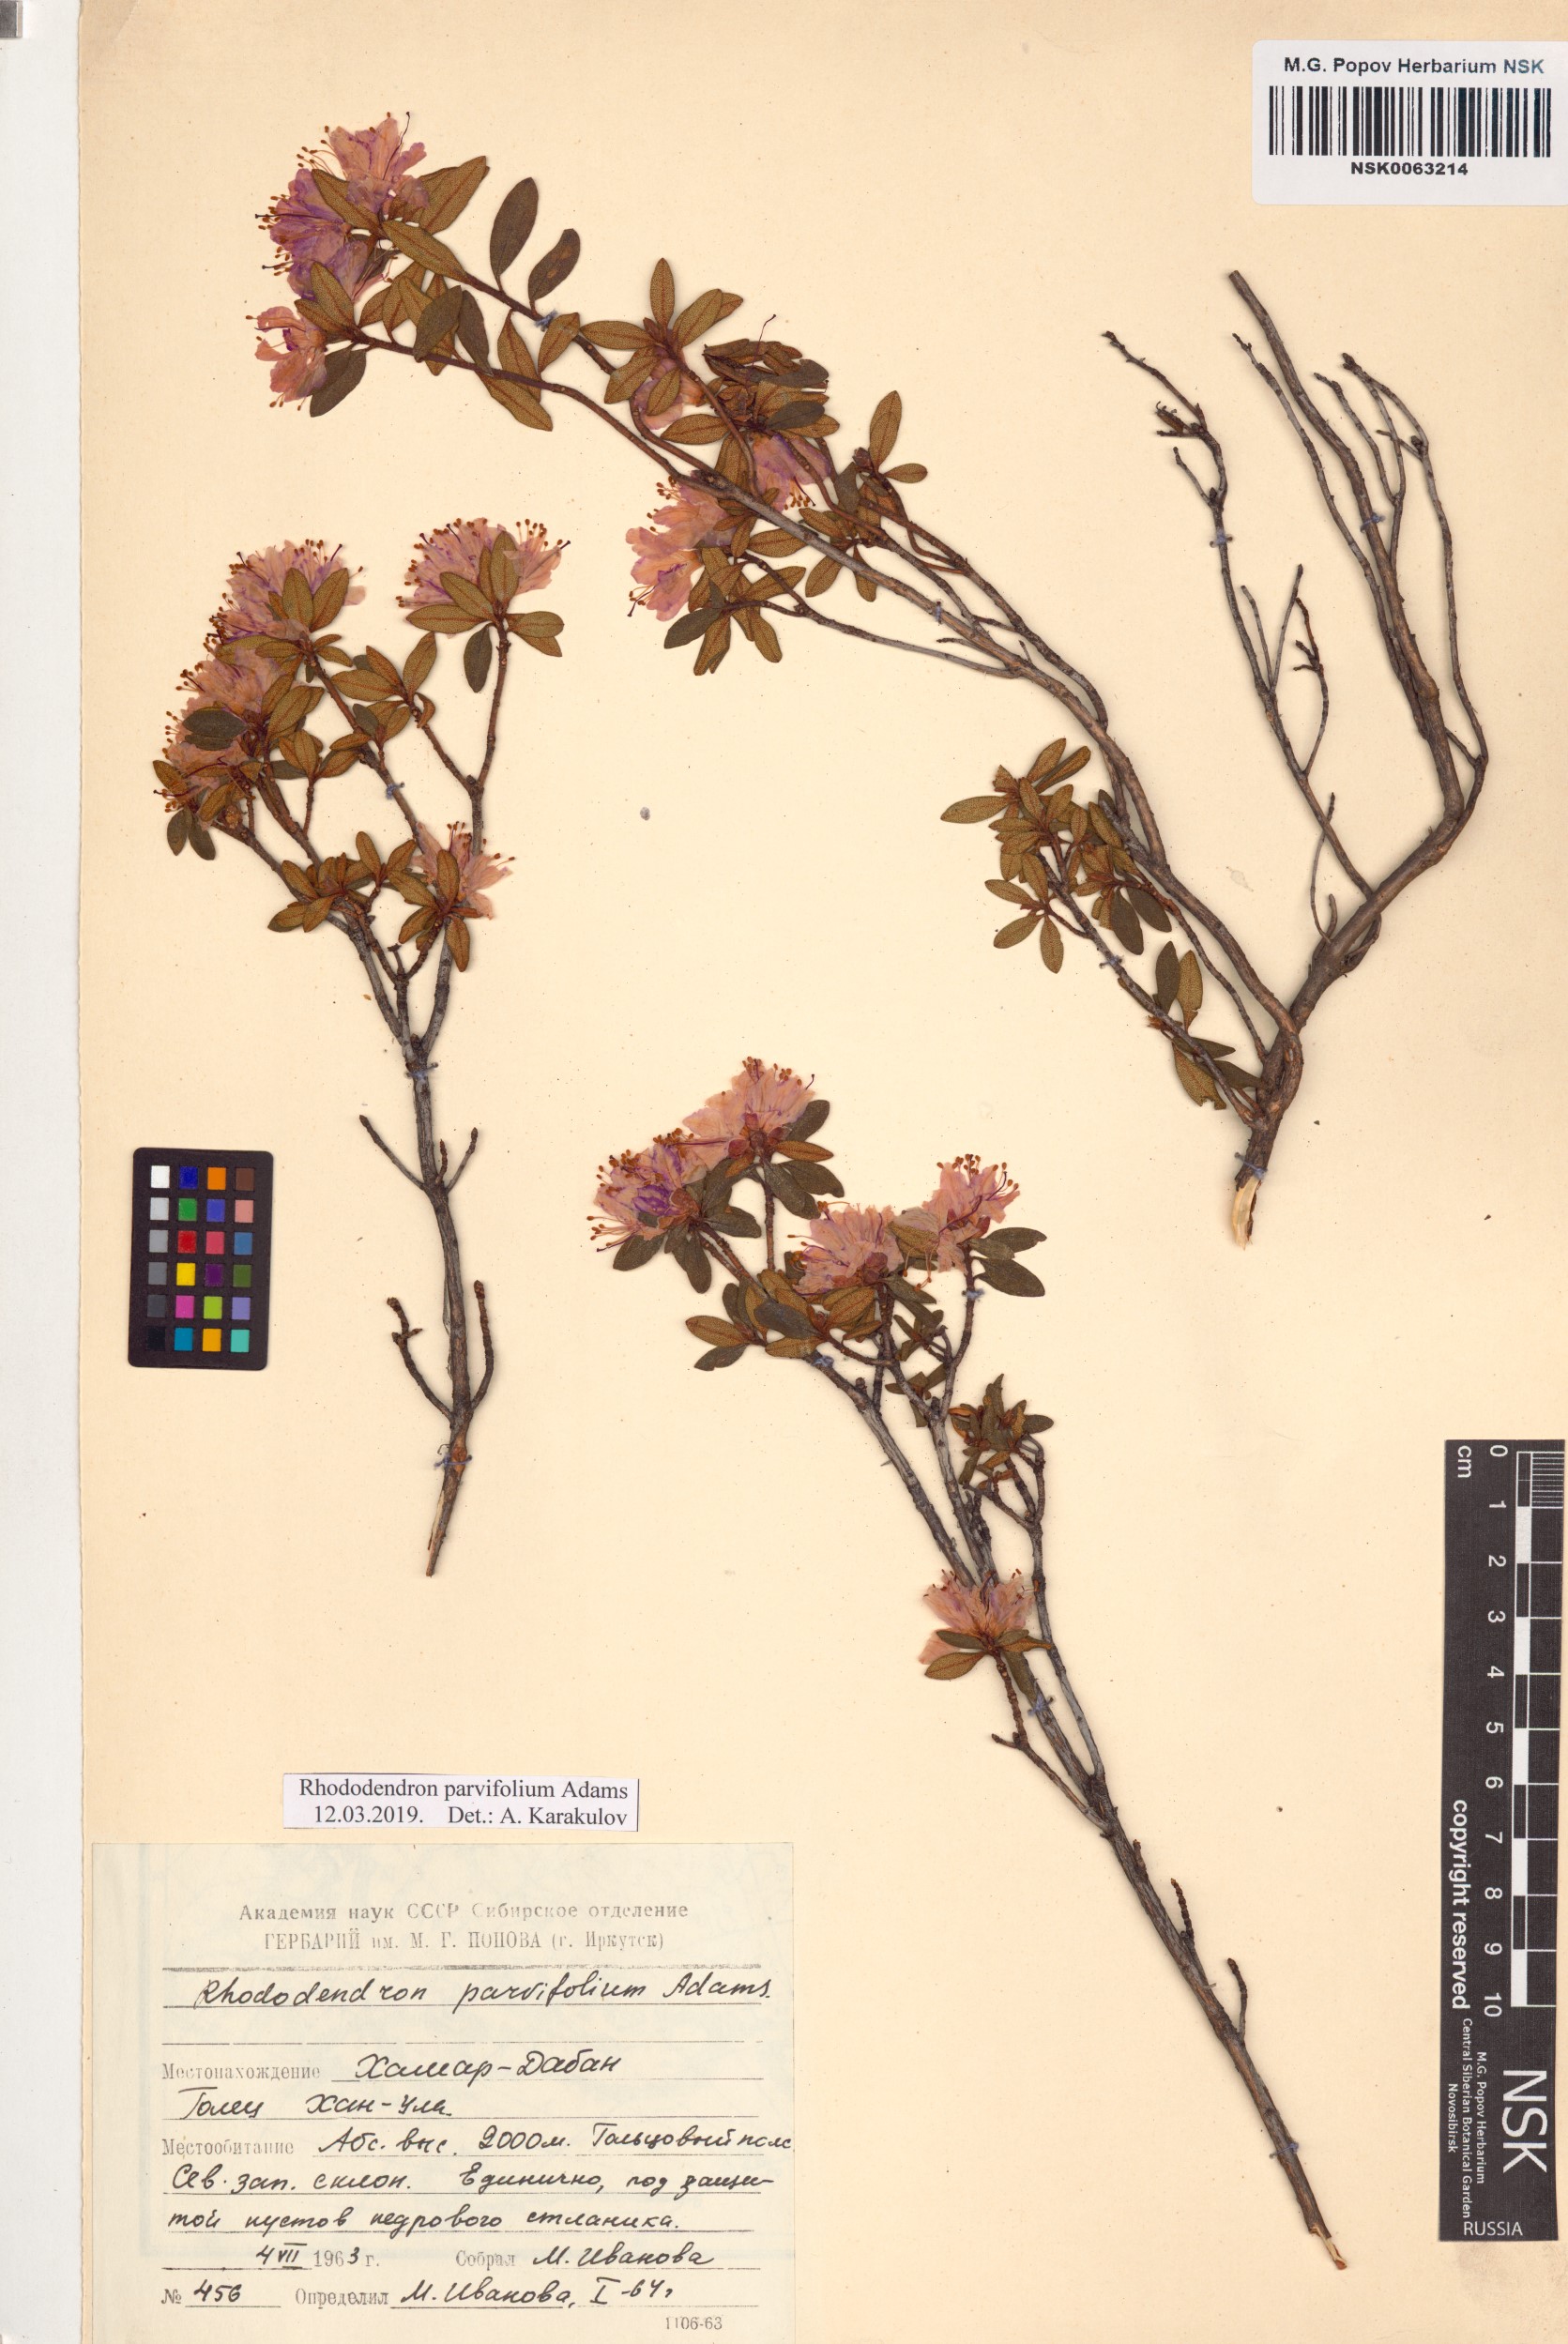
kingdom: Plantae
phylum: Tracheophyta
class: Magnoliopsida
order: Ericales
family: Ericaceae
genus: Rhododendron
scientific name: Rhododendron parvifolium
